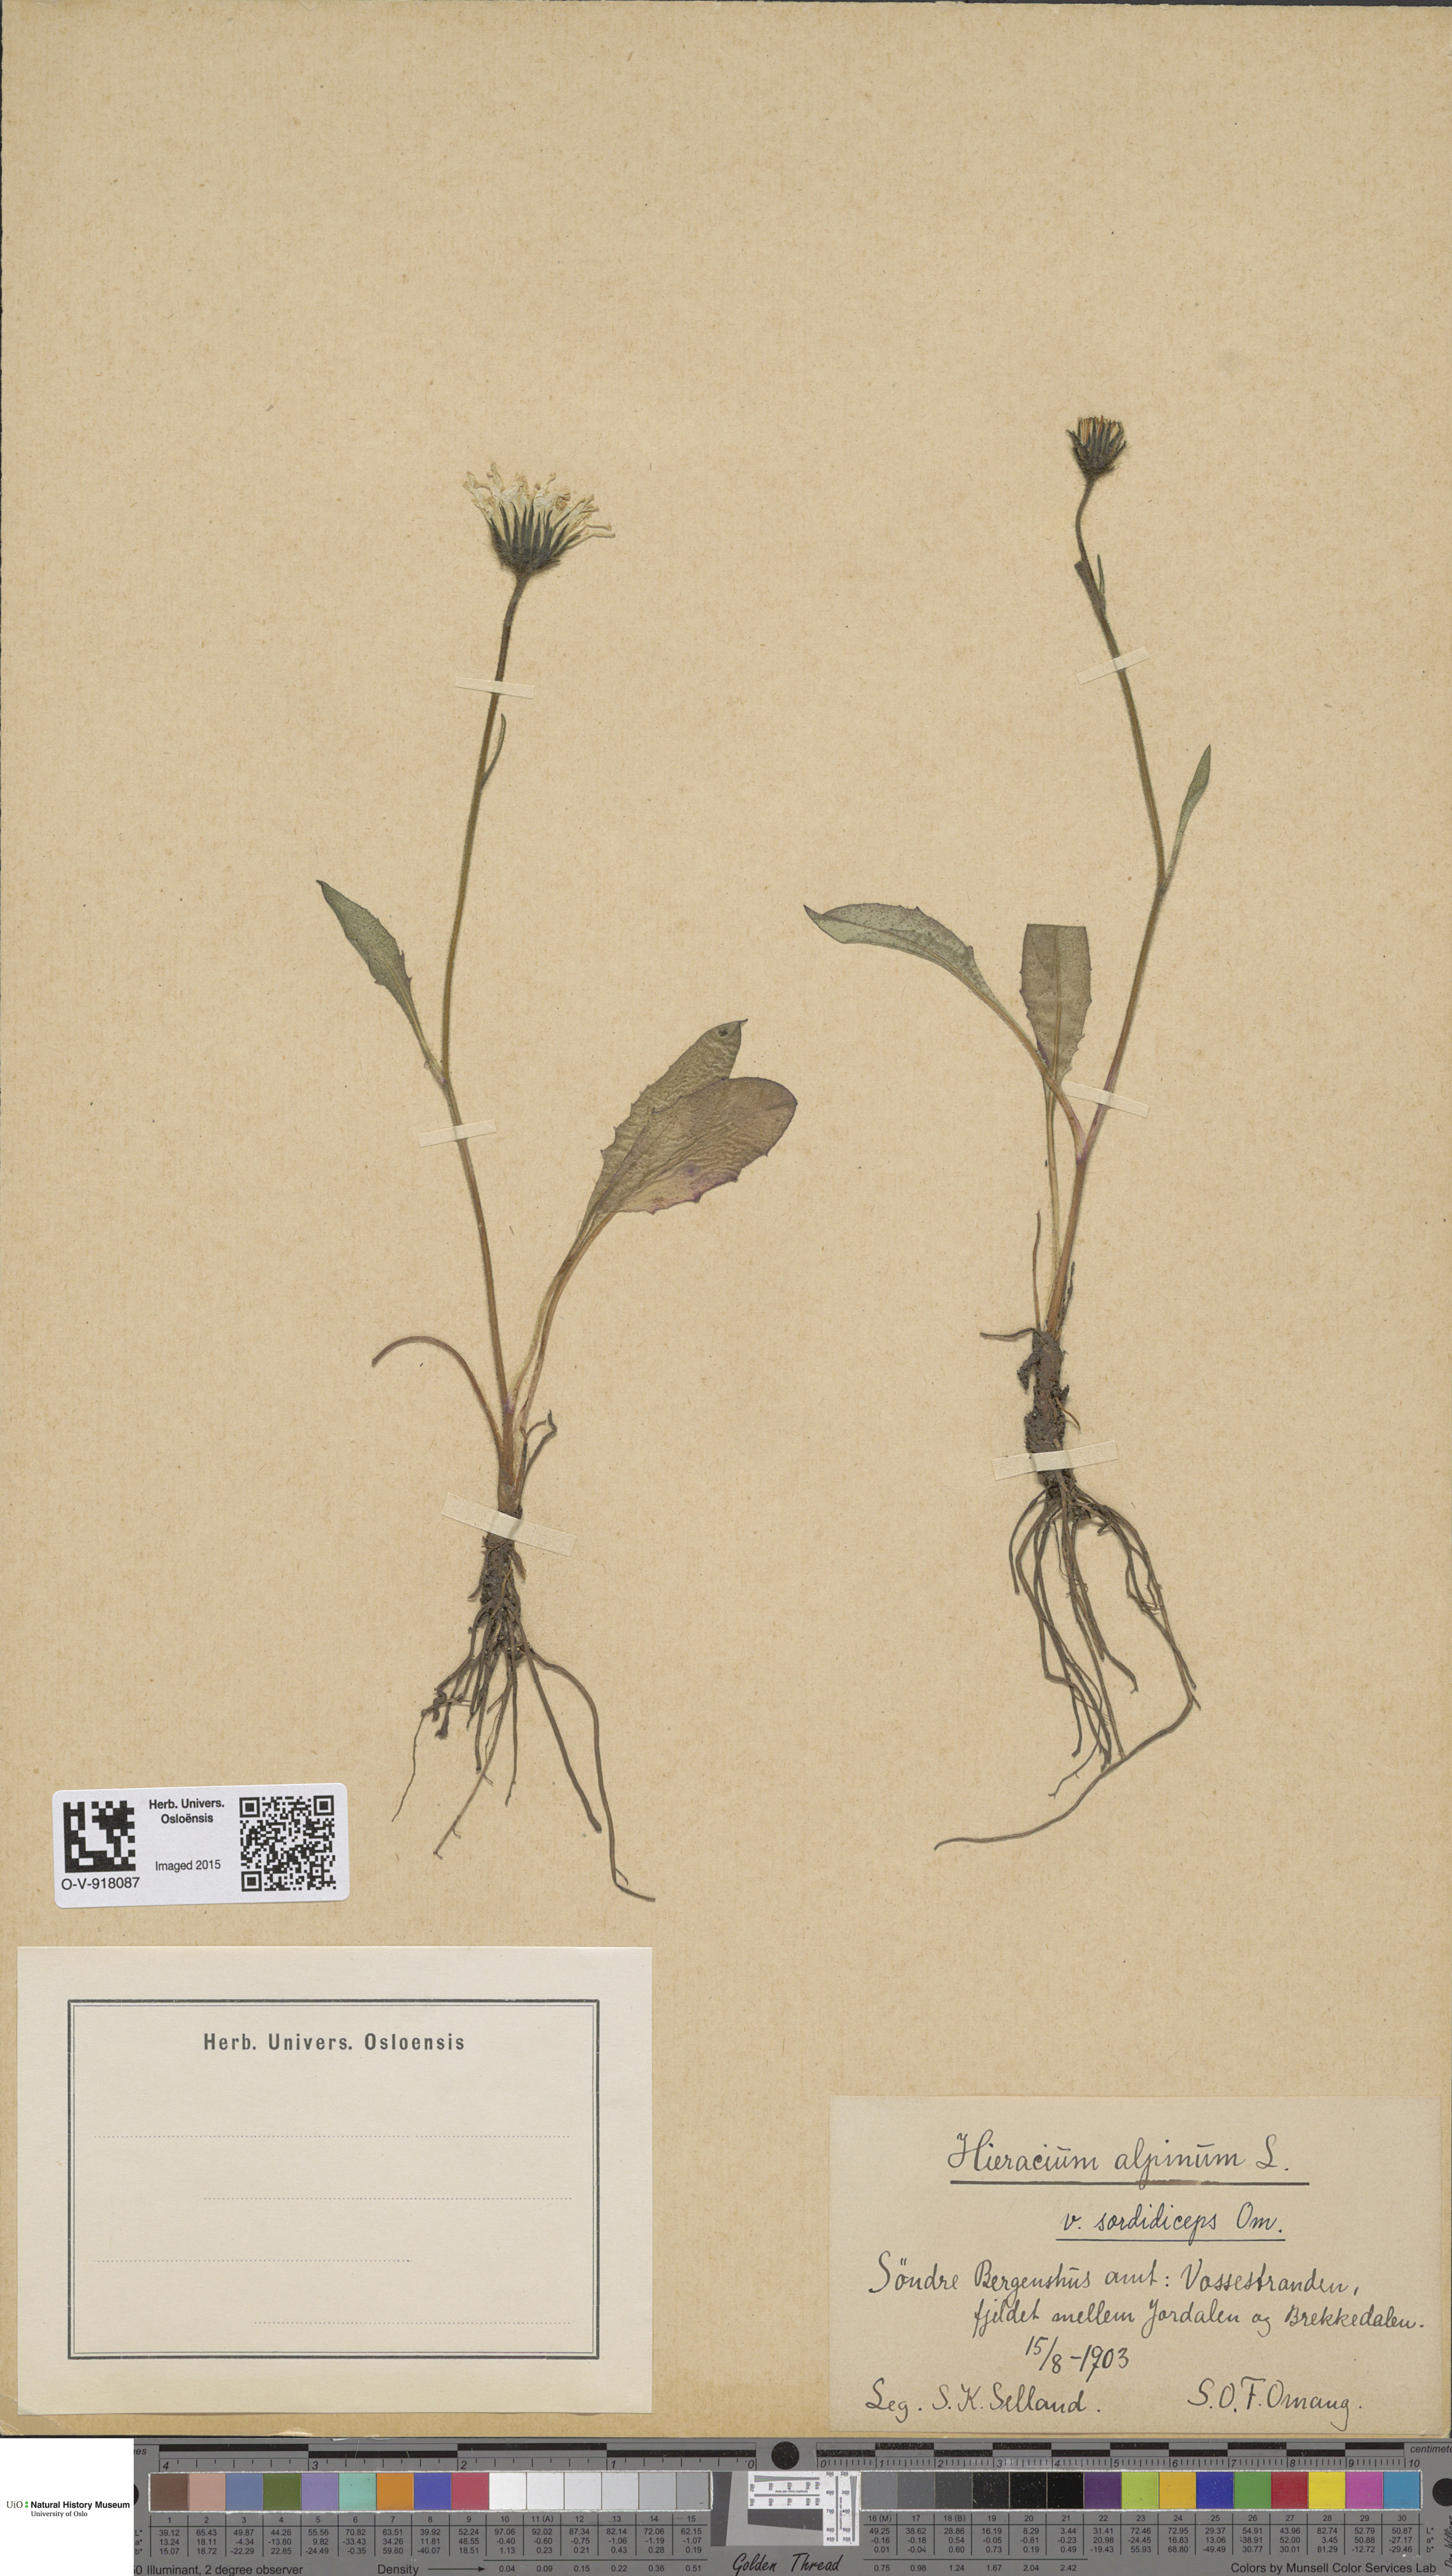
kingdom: Plantae
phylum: Tracheophyta
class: Magnoliopsida
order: Asterales
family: Asteraceae
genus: Hieracium
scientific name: Hieracium alpinum
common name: Alpine hawkweed
